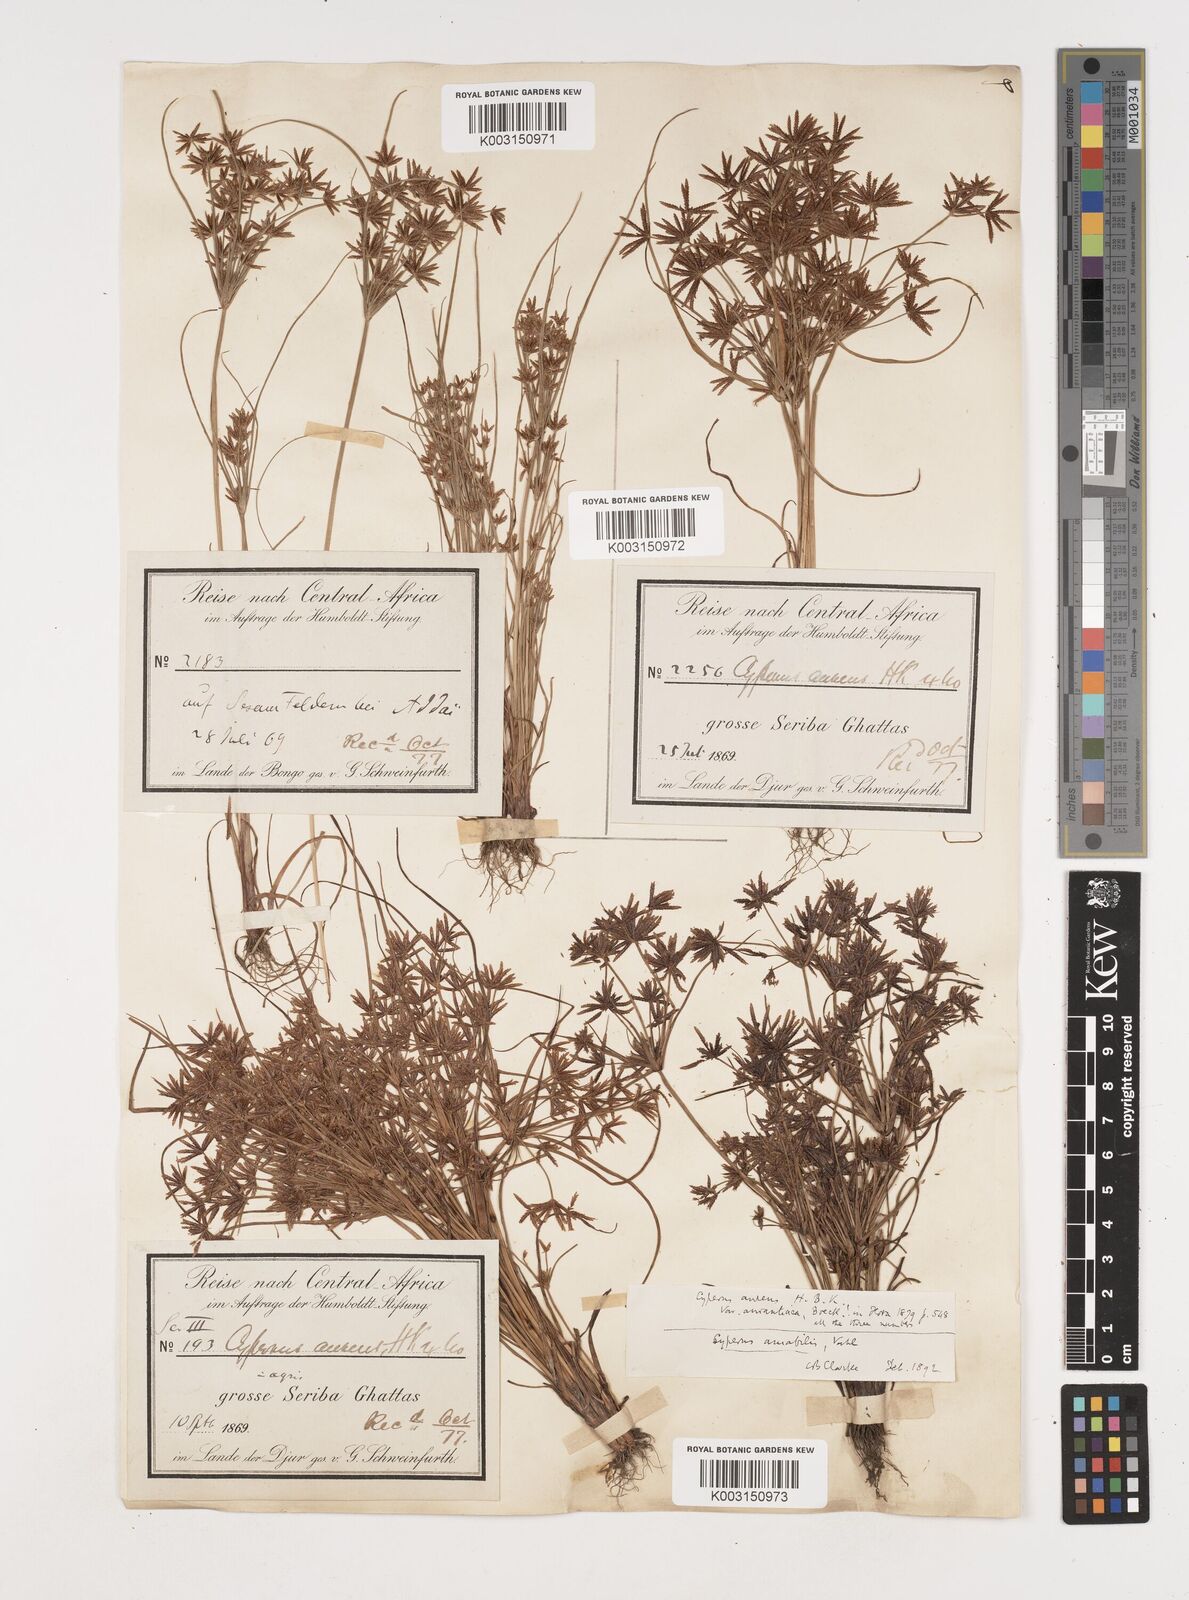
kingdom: Plantae
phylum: Tracheophyta
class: Liliopsida
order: Poales
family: Cyperaceae
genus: Cyperus
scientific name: Cyperus amabilis
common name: Foothill flat sedge
